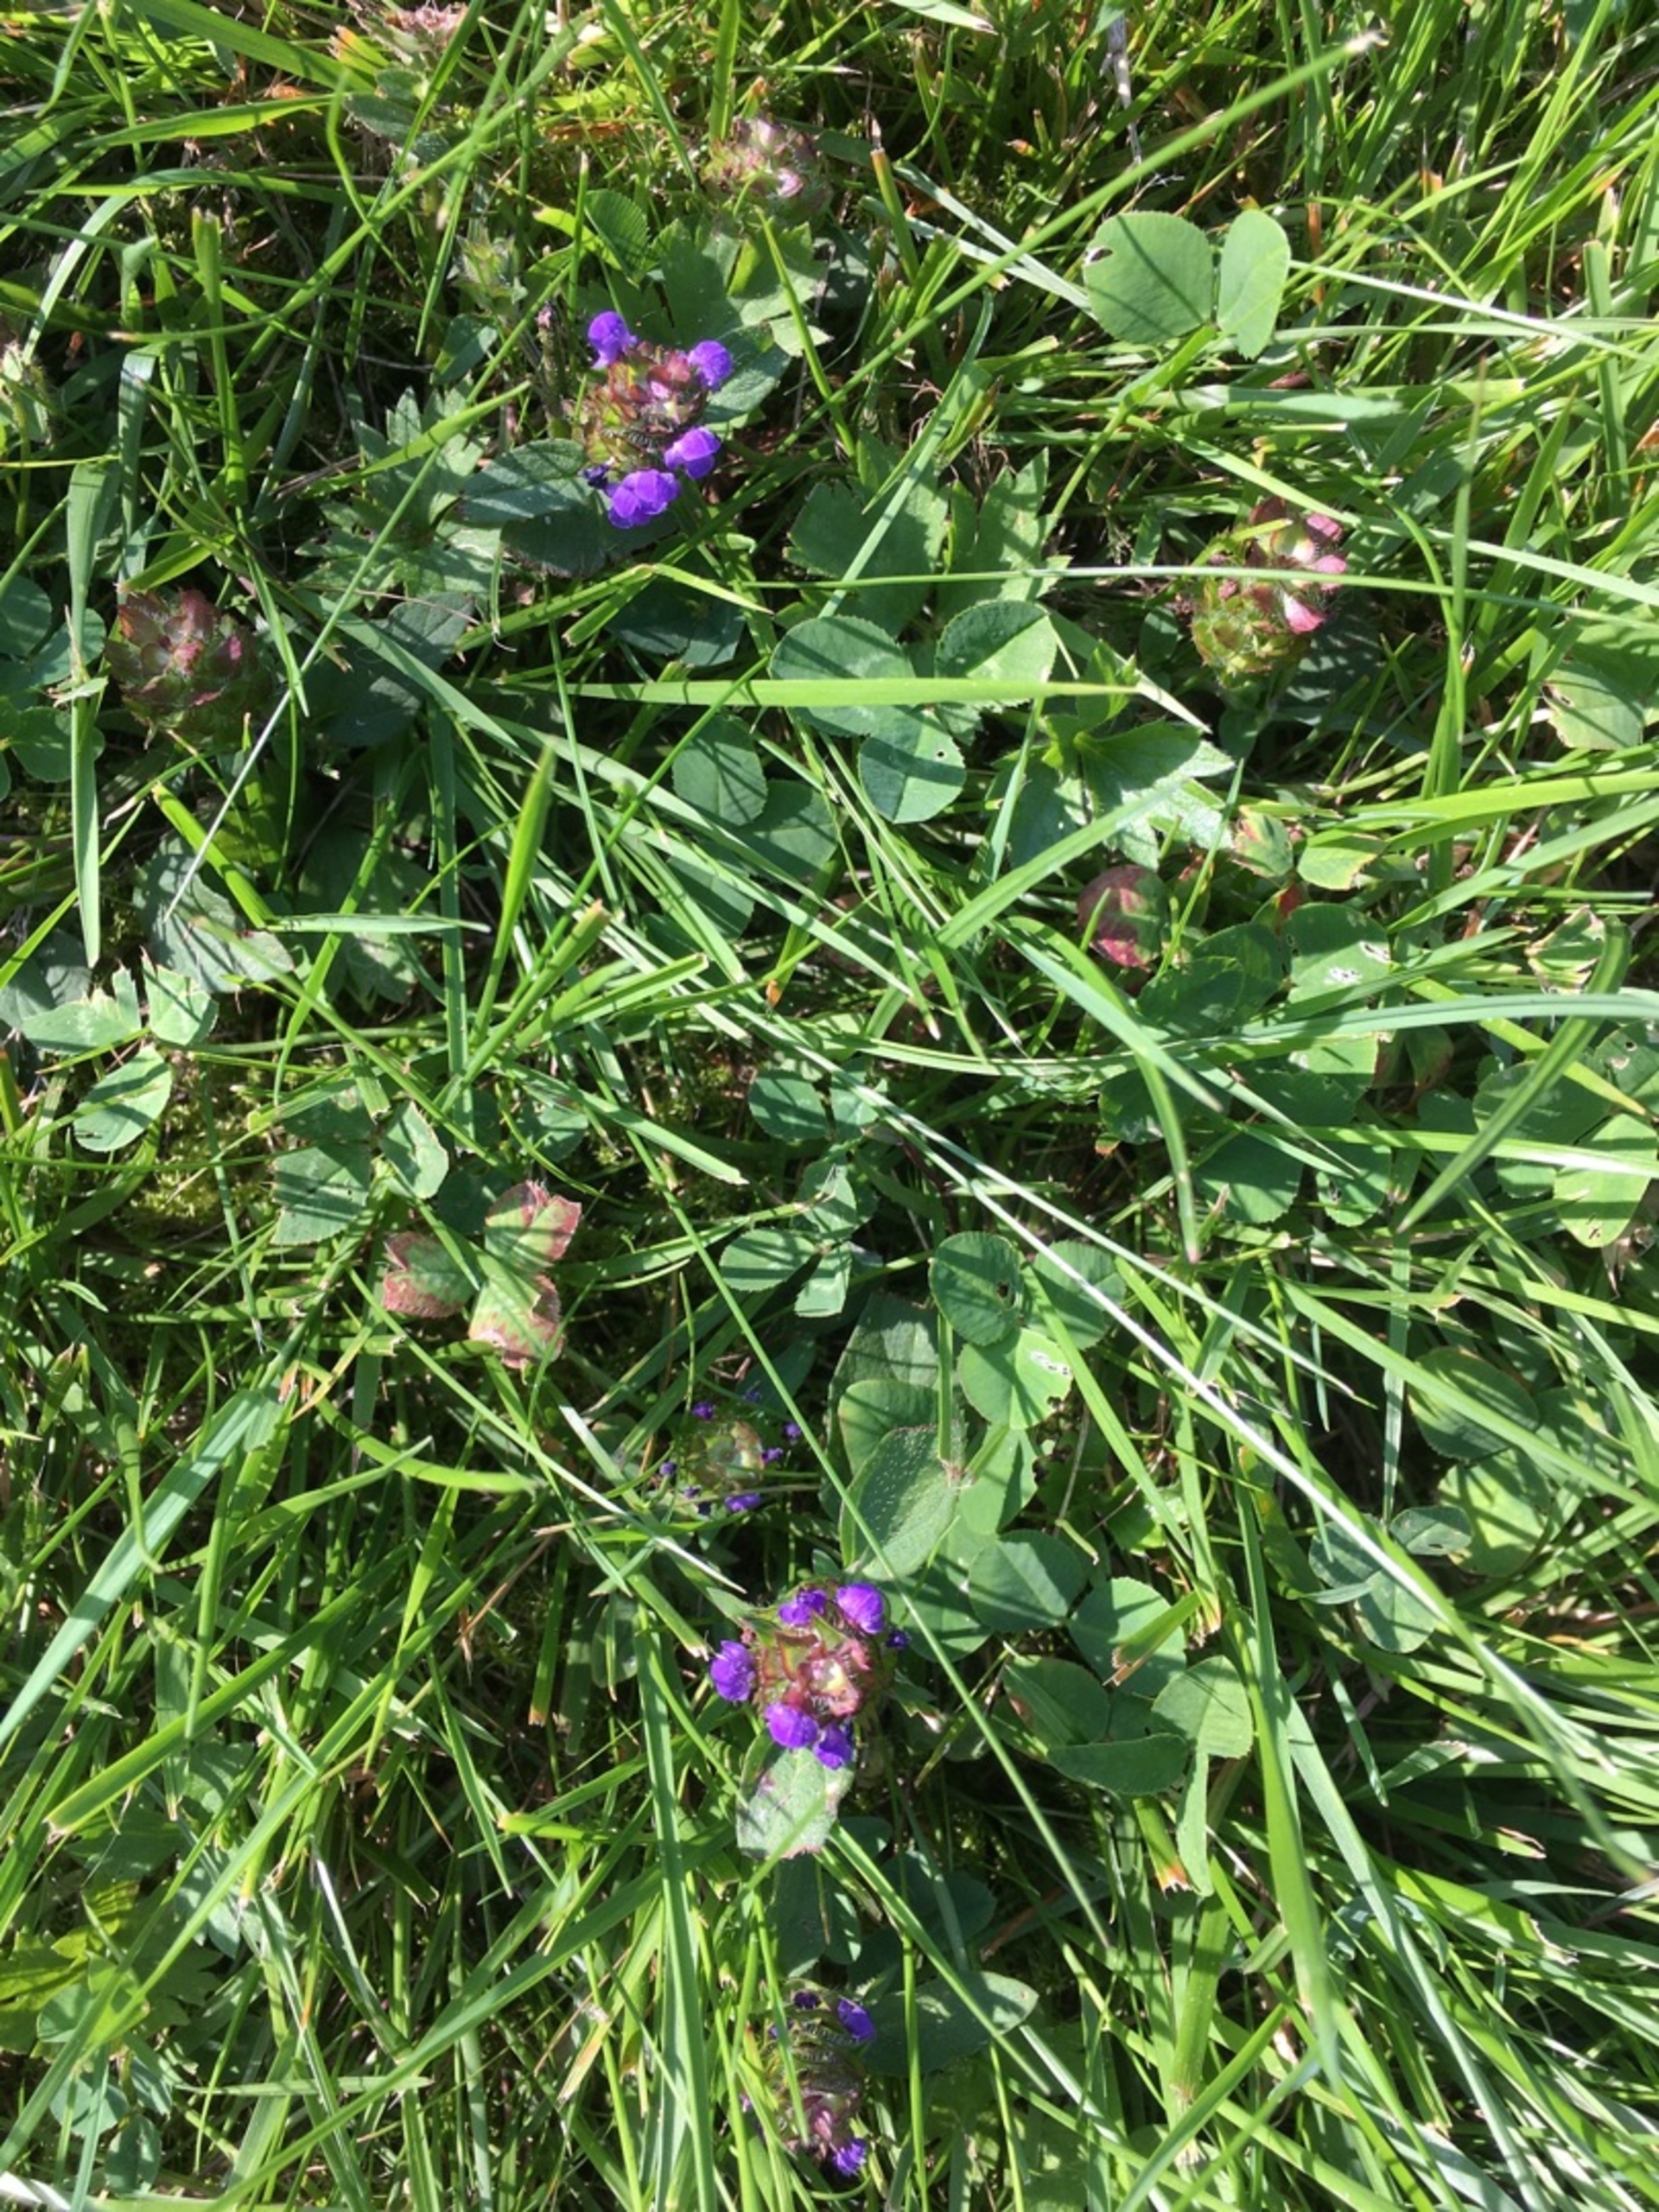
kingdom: Plantae
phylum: Tracheophyta
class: Magnoliopsida
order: Lamiales
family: Lamiaceae
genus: Prunella
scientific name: Prunella vulgaris
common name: Almindelig brunelle
